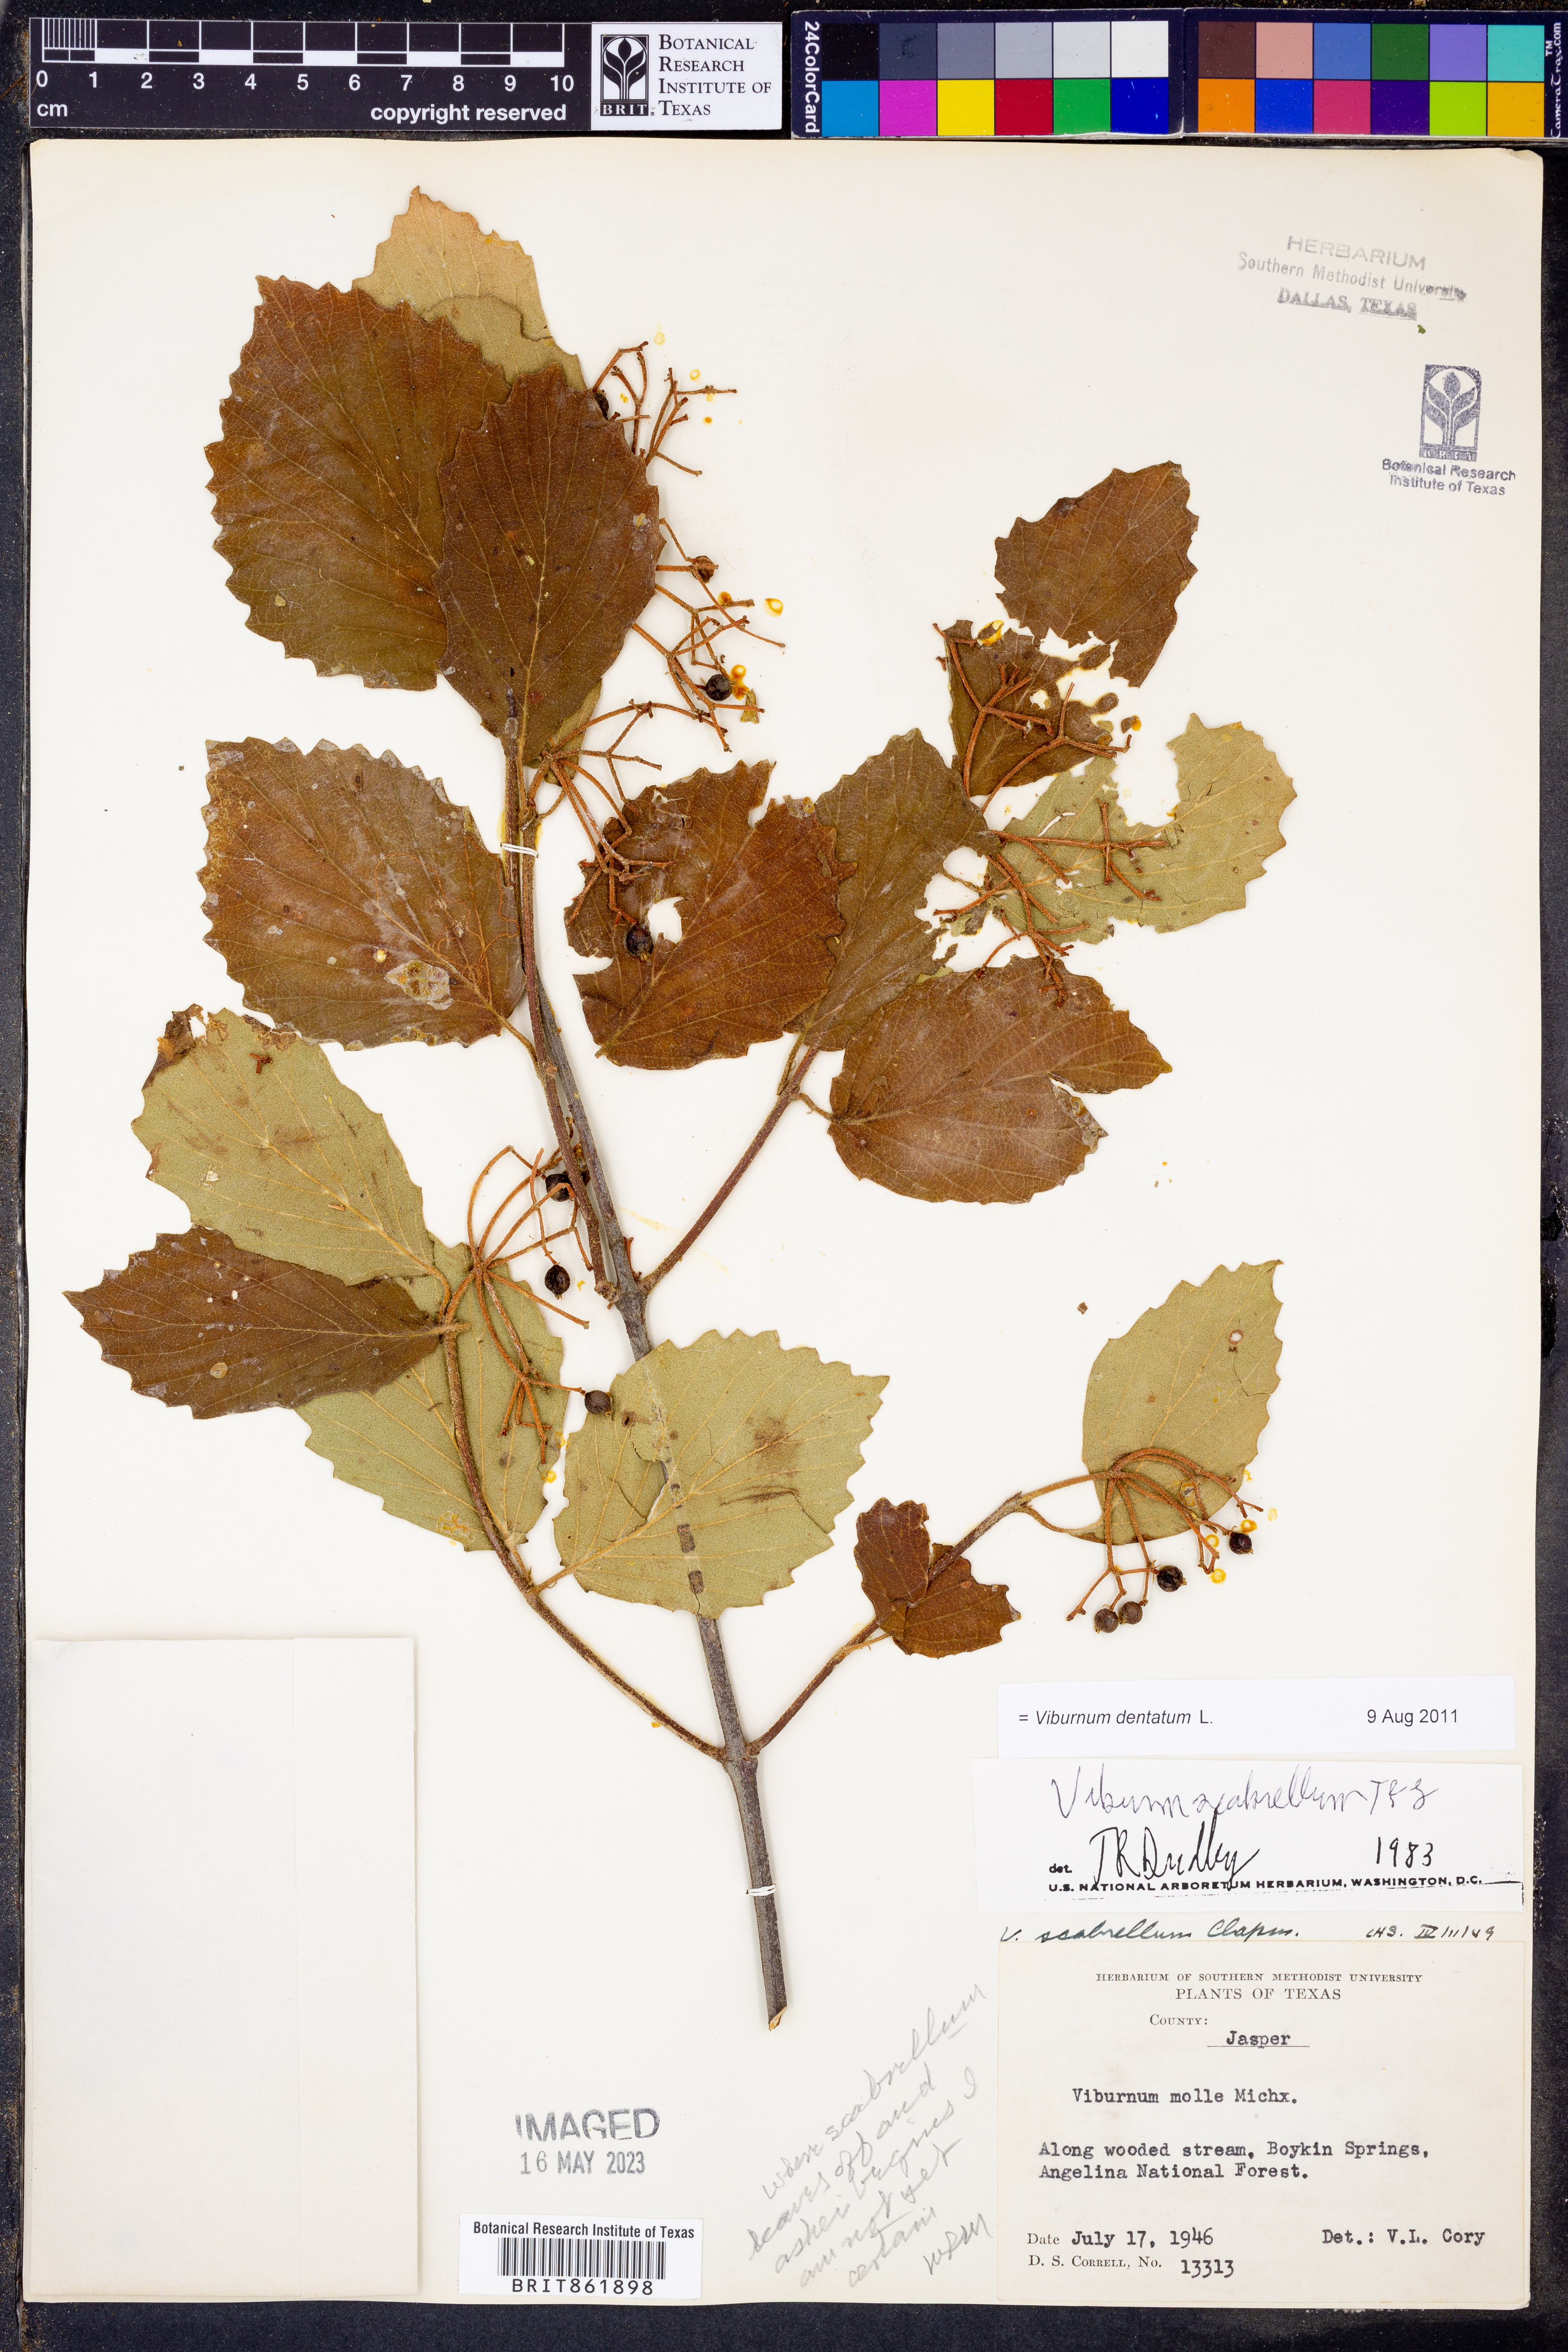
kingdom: Plantae
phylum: Tracheophyta
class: Magnoliopsida
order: Dipsacales
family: Viburnaceae
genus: Viburnum
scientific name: Viburnum dentatum
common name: Arrow-wood
